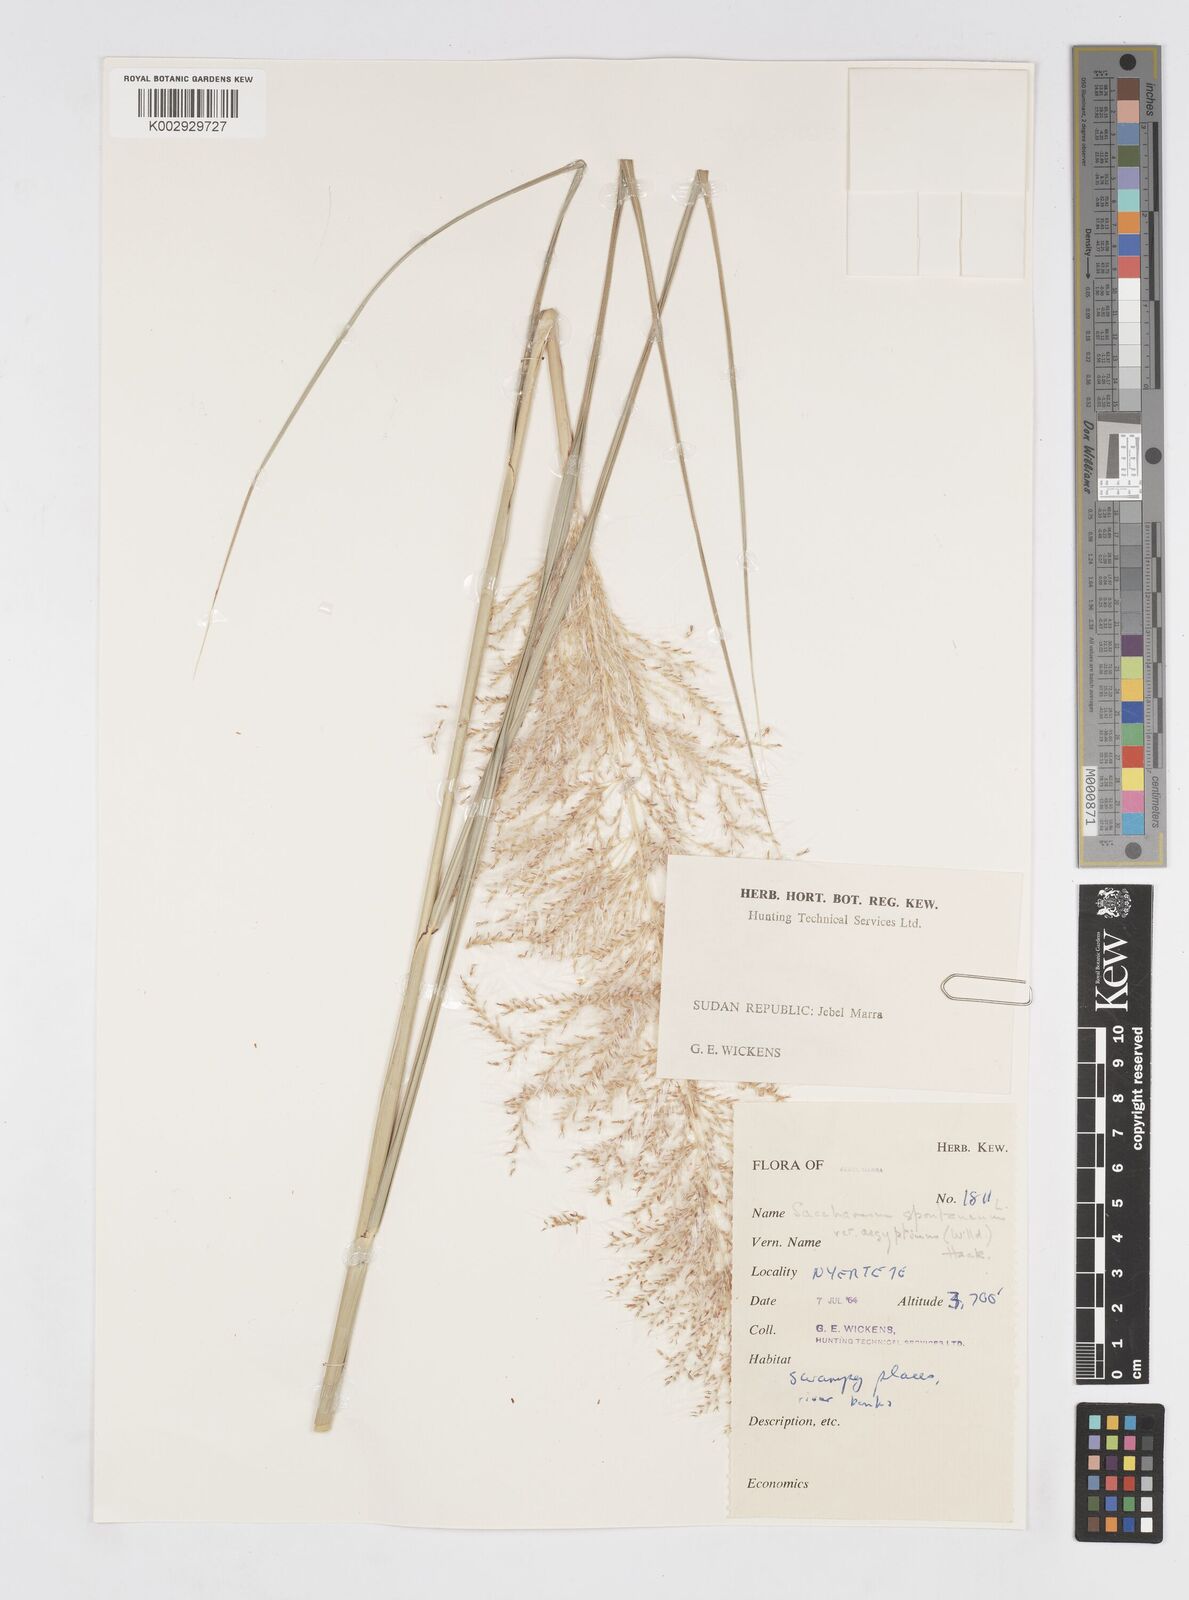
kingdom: Plantae
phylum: Tracheophyta
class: Liliopsida
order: Poales
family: Poaceae
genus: Saccharum
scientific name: Saccharum spontaneum
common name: Wild sugarcane
